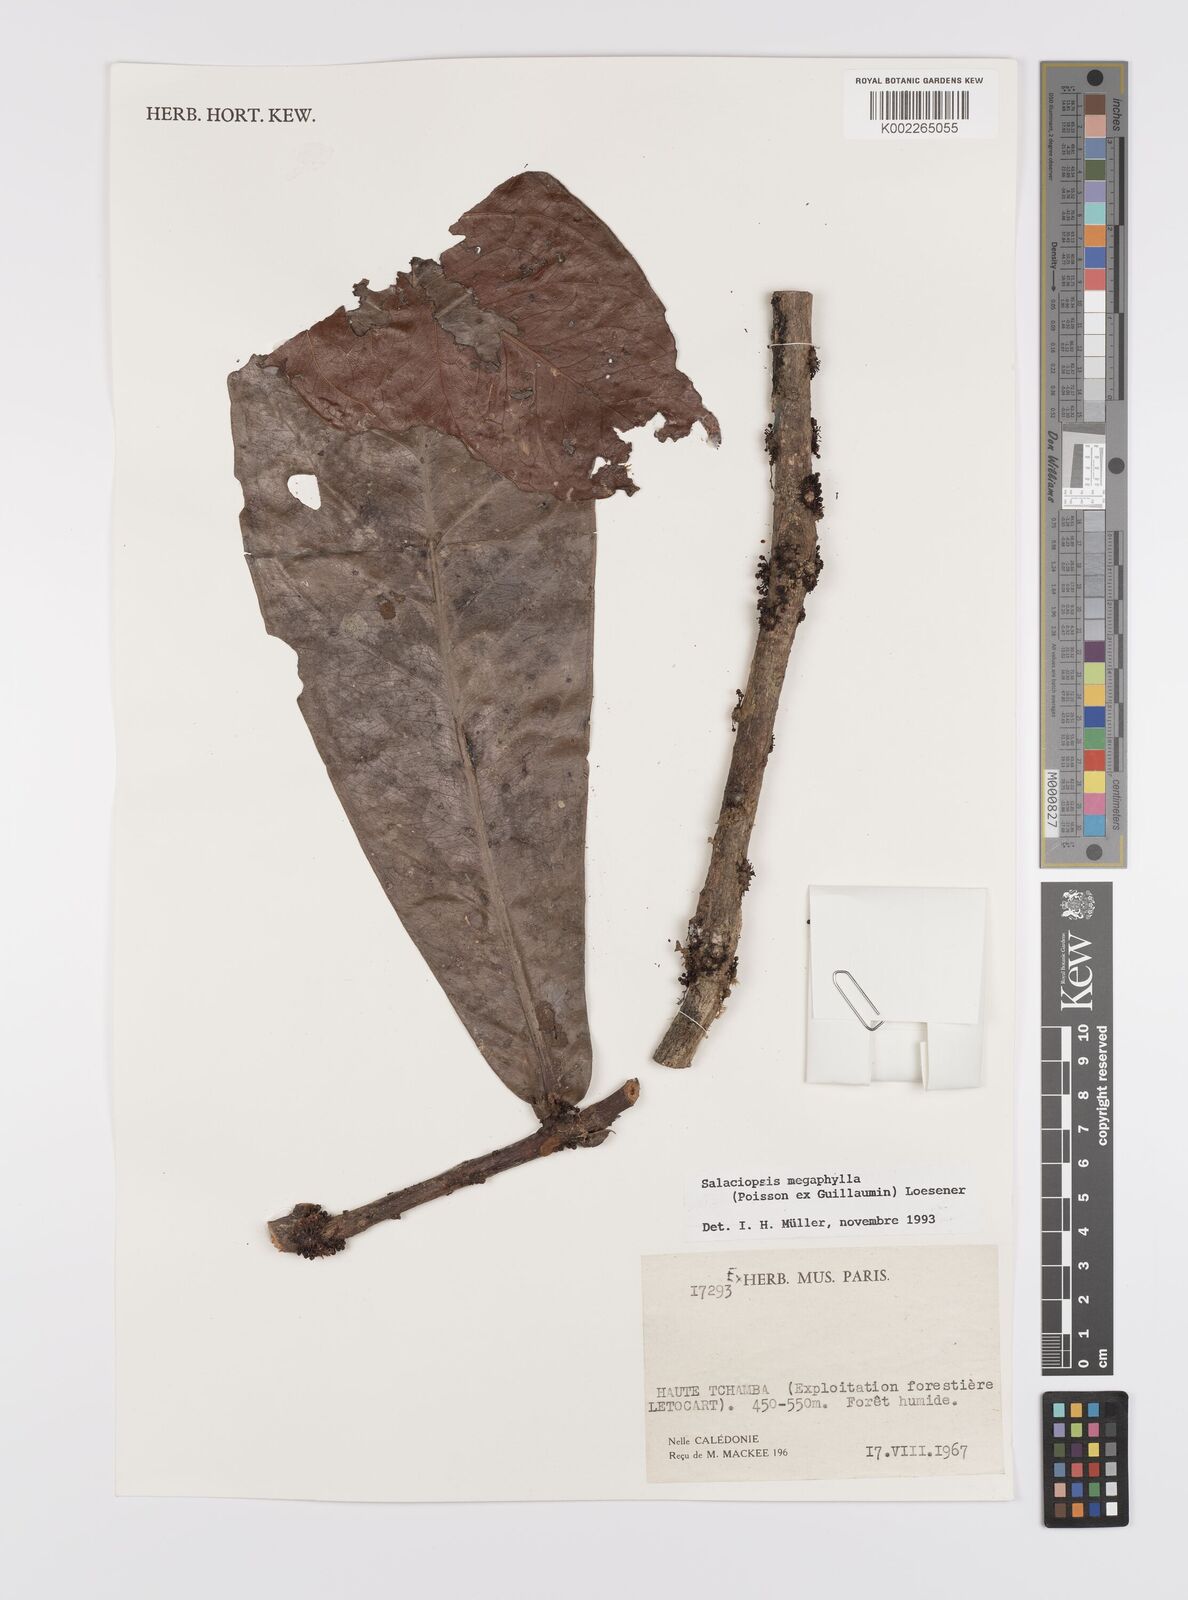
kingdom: Plantae
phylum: Tracheophyta
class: Magnoliopsida
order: Celastrales
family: Celastraceae
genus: Salaciopsis
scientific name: Salaciopsis megaphylla
